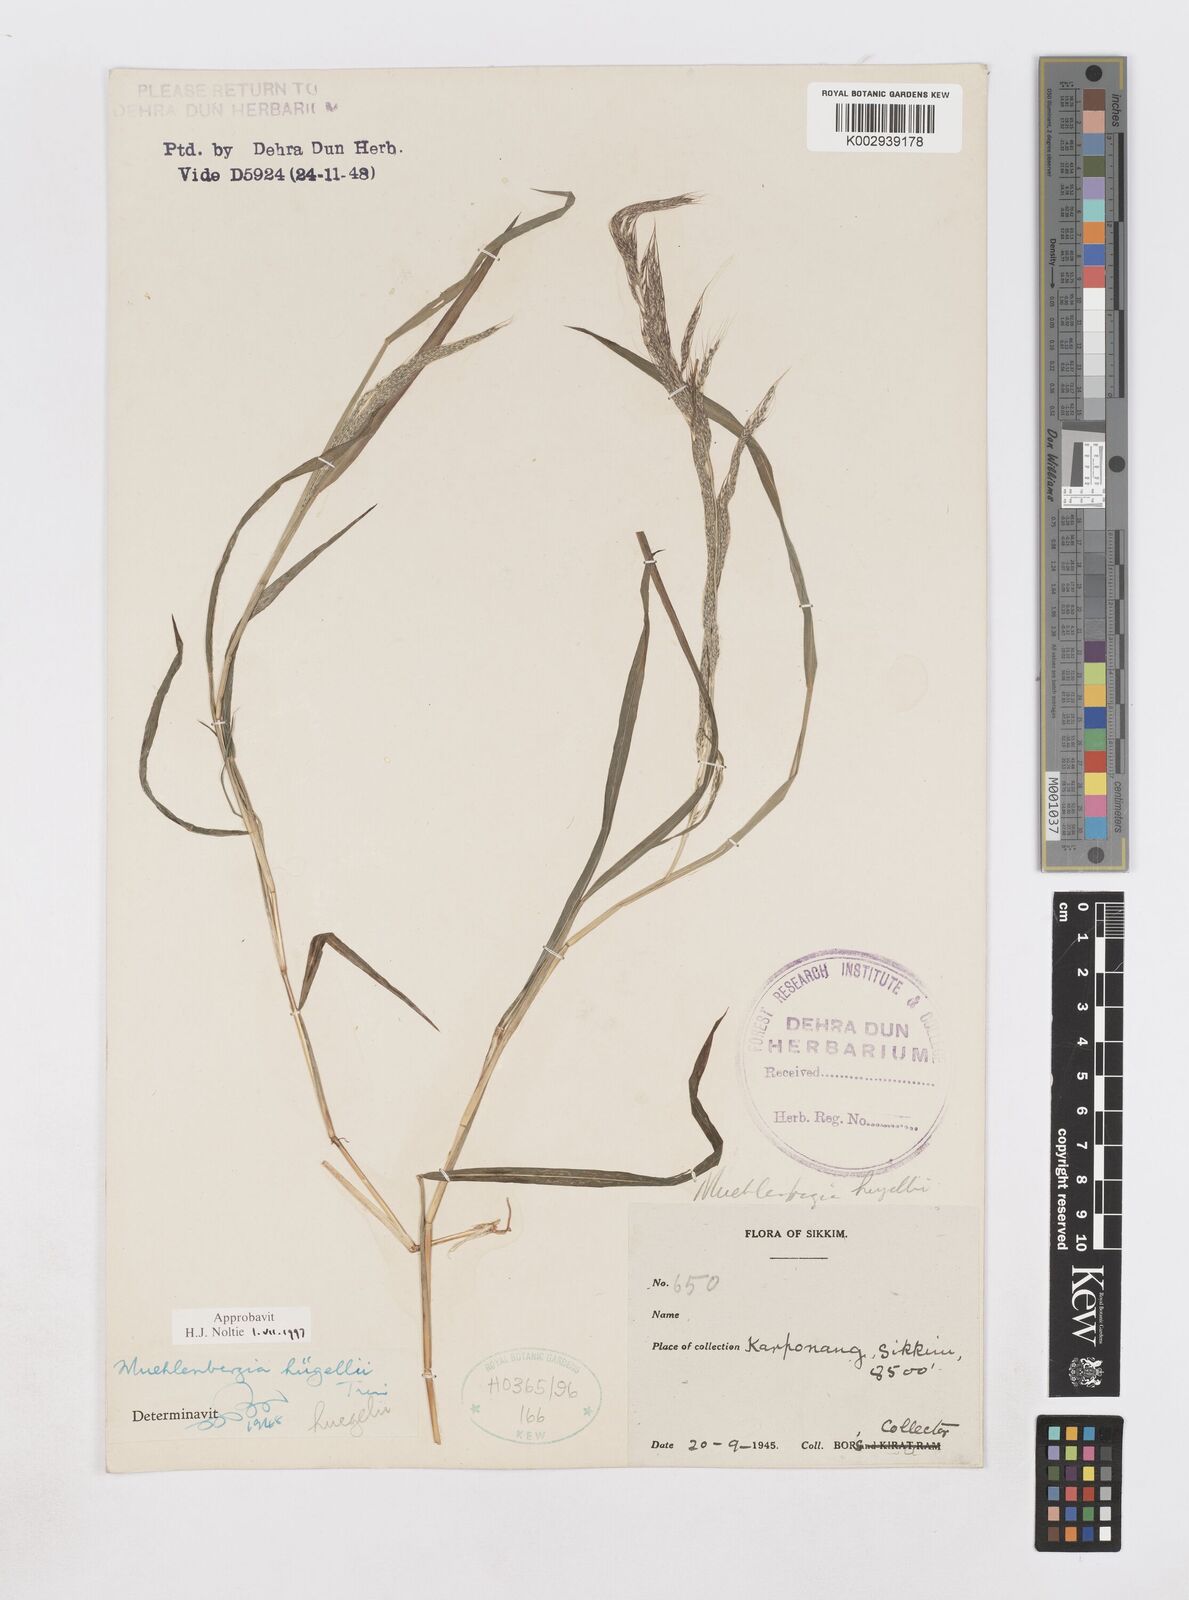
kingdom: Plantae
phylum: Tracheophyta
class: Liliopsida
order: Poales
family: Poaceae
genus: Muhlenbergia
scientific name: Muhlenbergia huegelii
